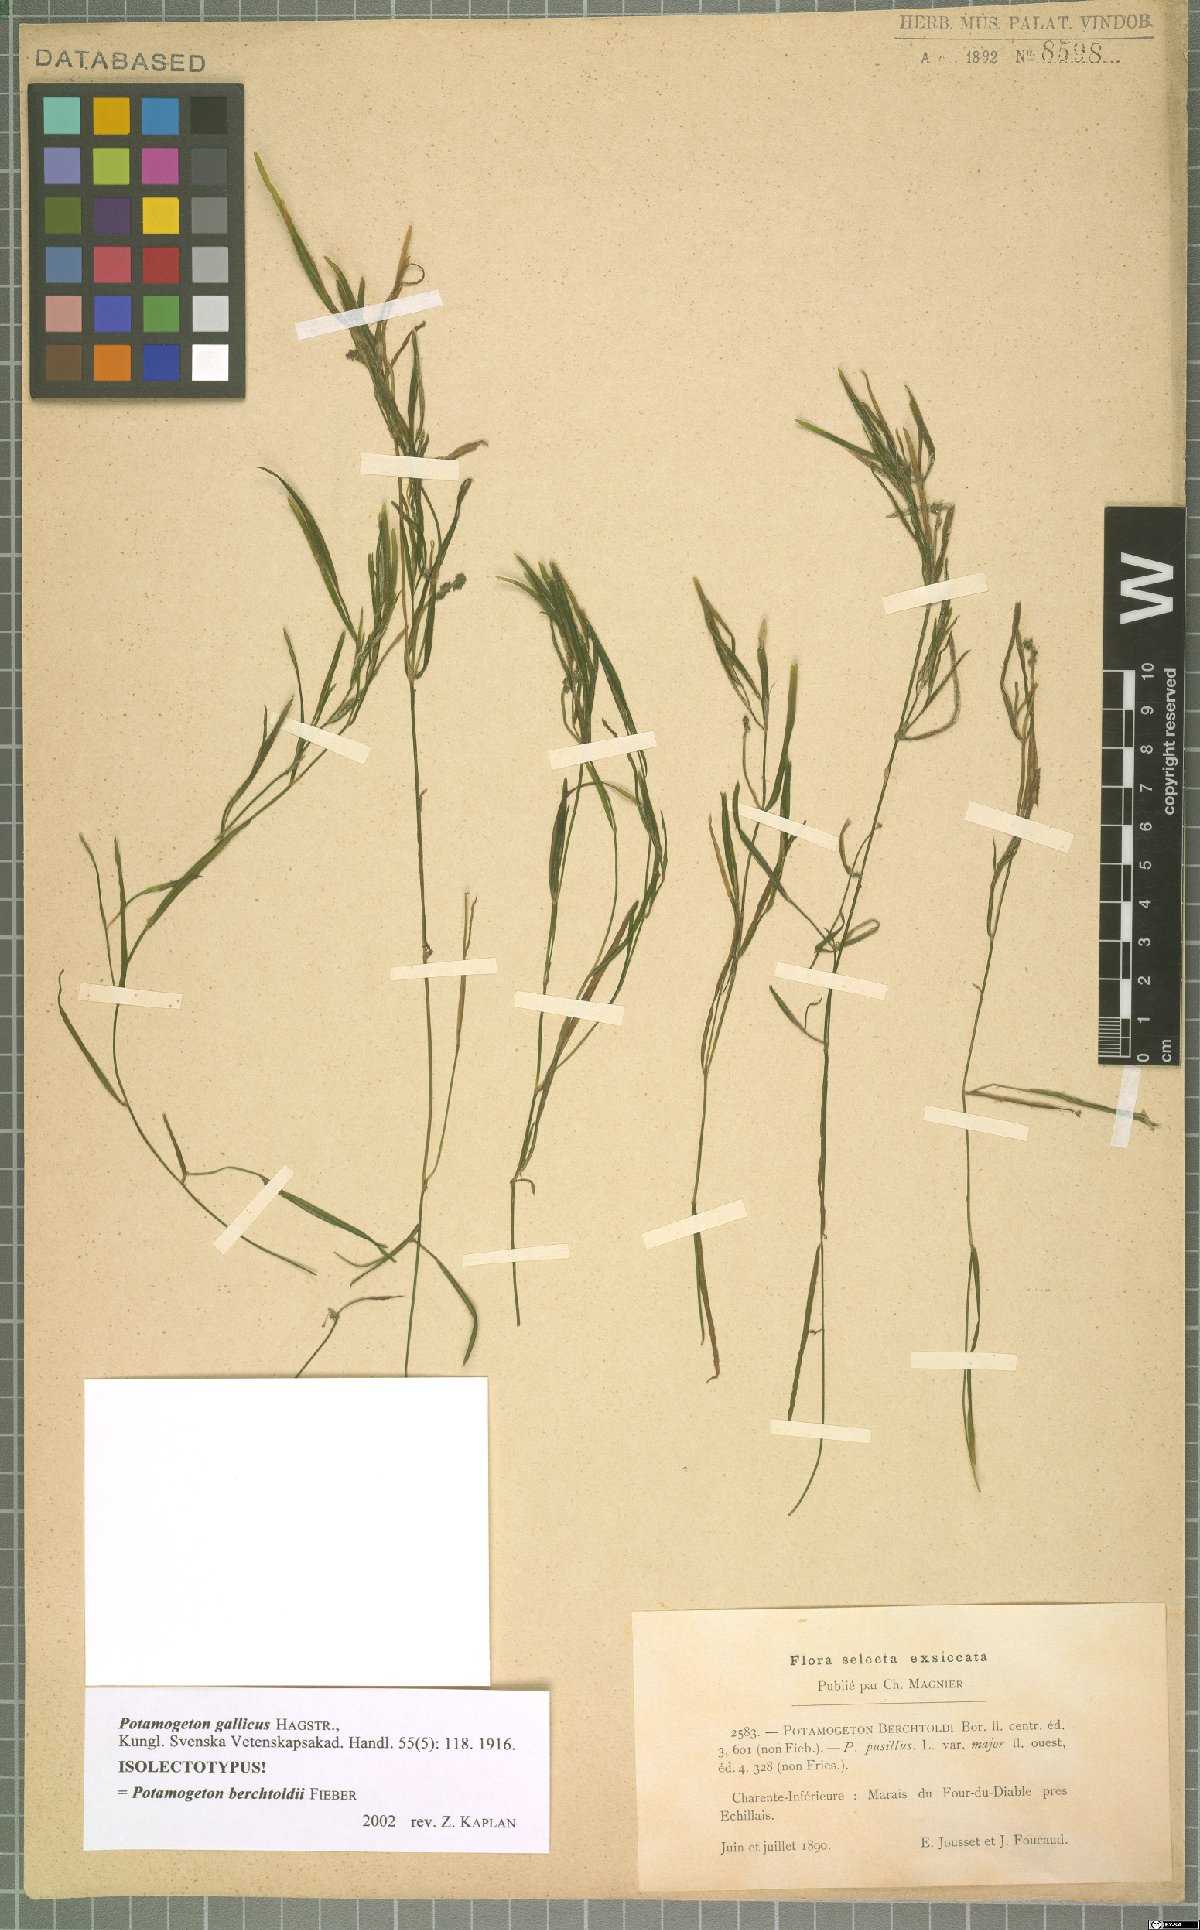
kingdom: Plantae
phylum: Tracheophyta
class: Liliopsida
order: Alismatales
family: Potamogetonaceae
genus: Potamogeton
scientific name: Potamogeton berchtoldii
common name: Small pondweed
